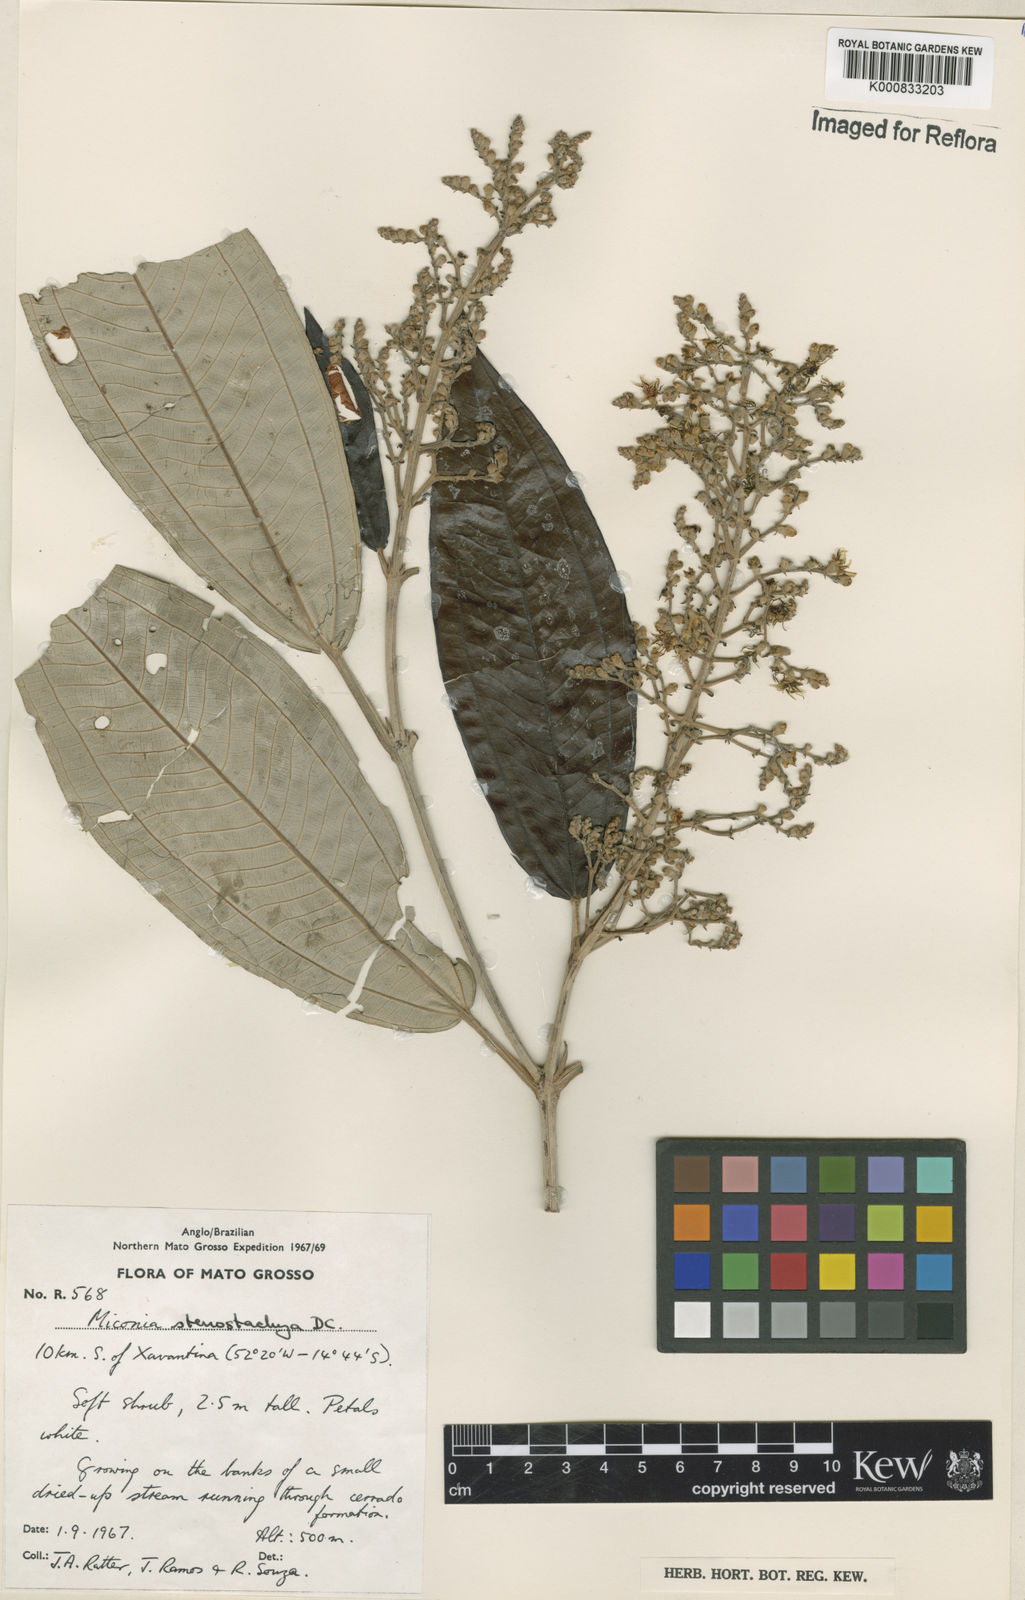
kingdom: Plantae
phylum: Tracheophyta
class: Magnoliopsida
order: Myrtales
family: Melastomataceae
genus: Miconia
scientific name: Miconia stenostachya
